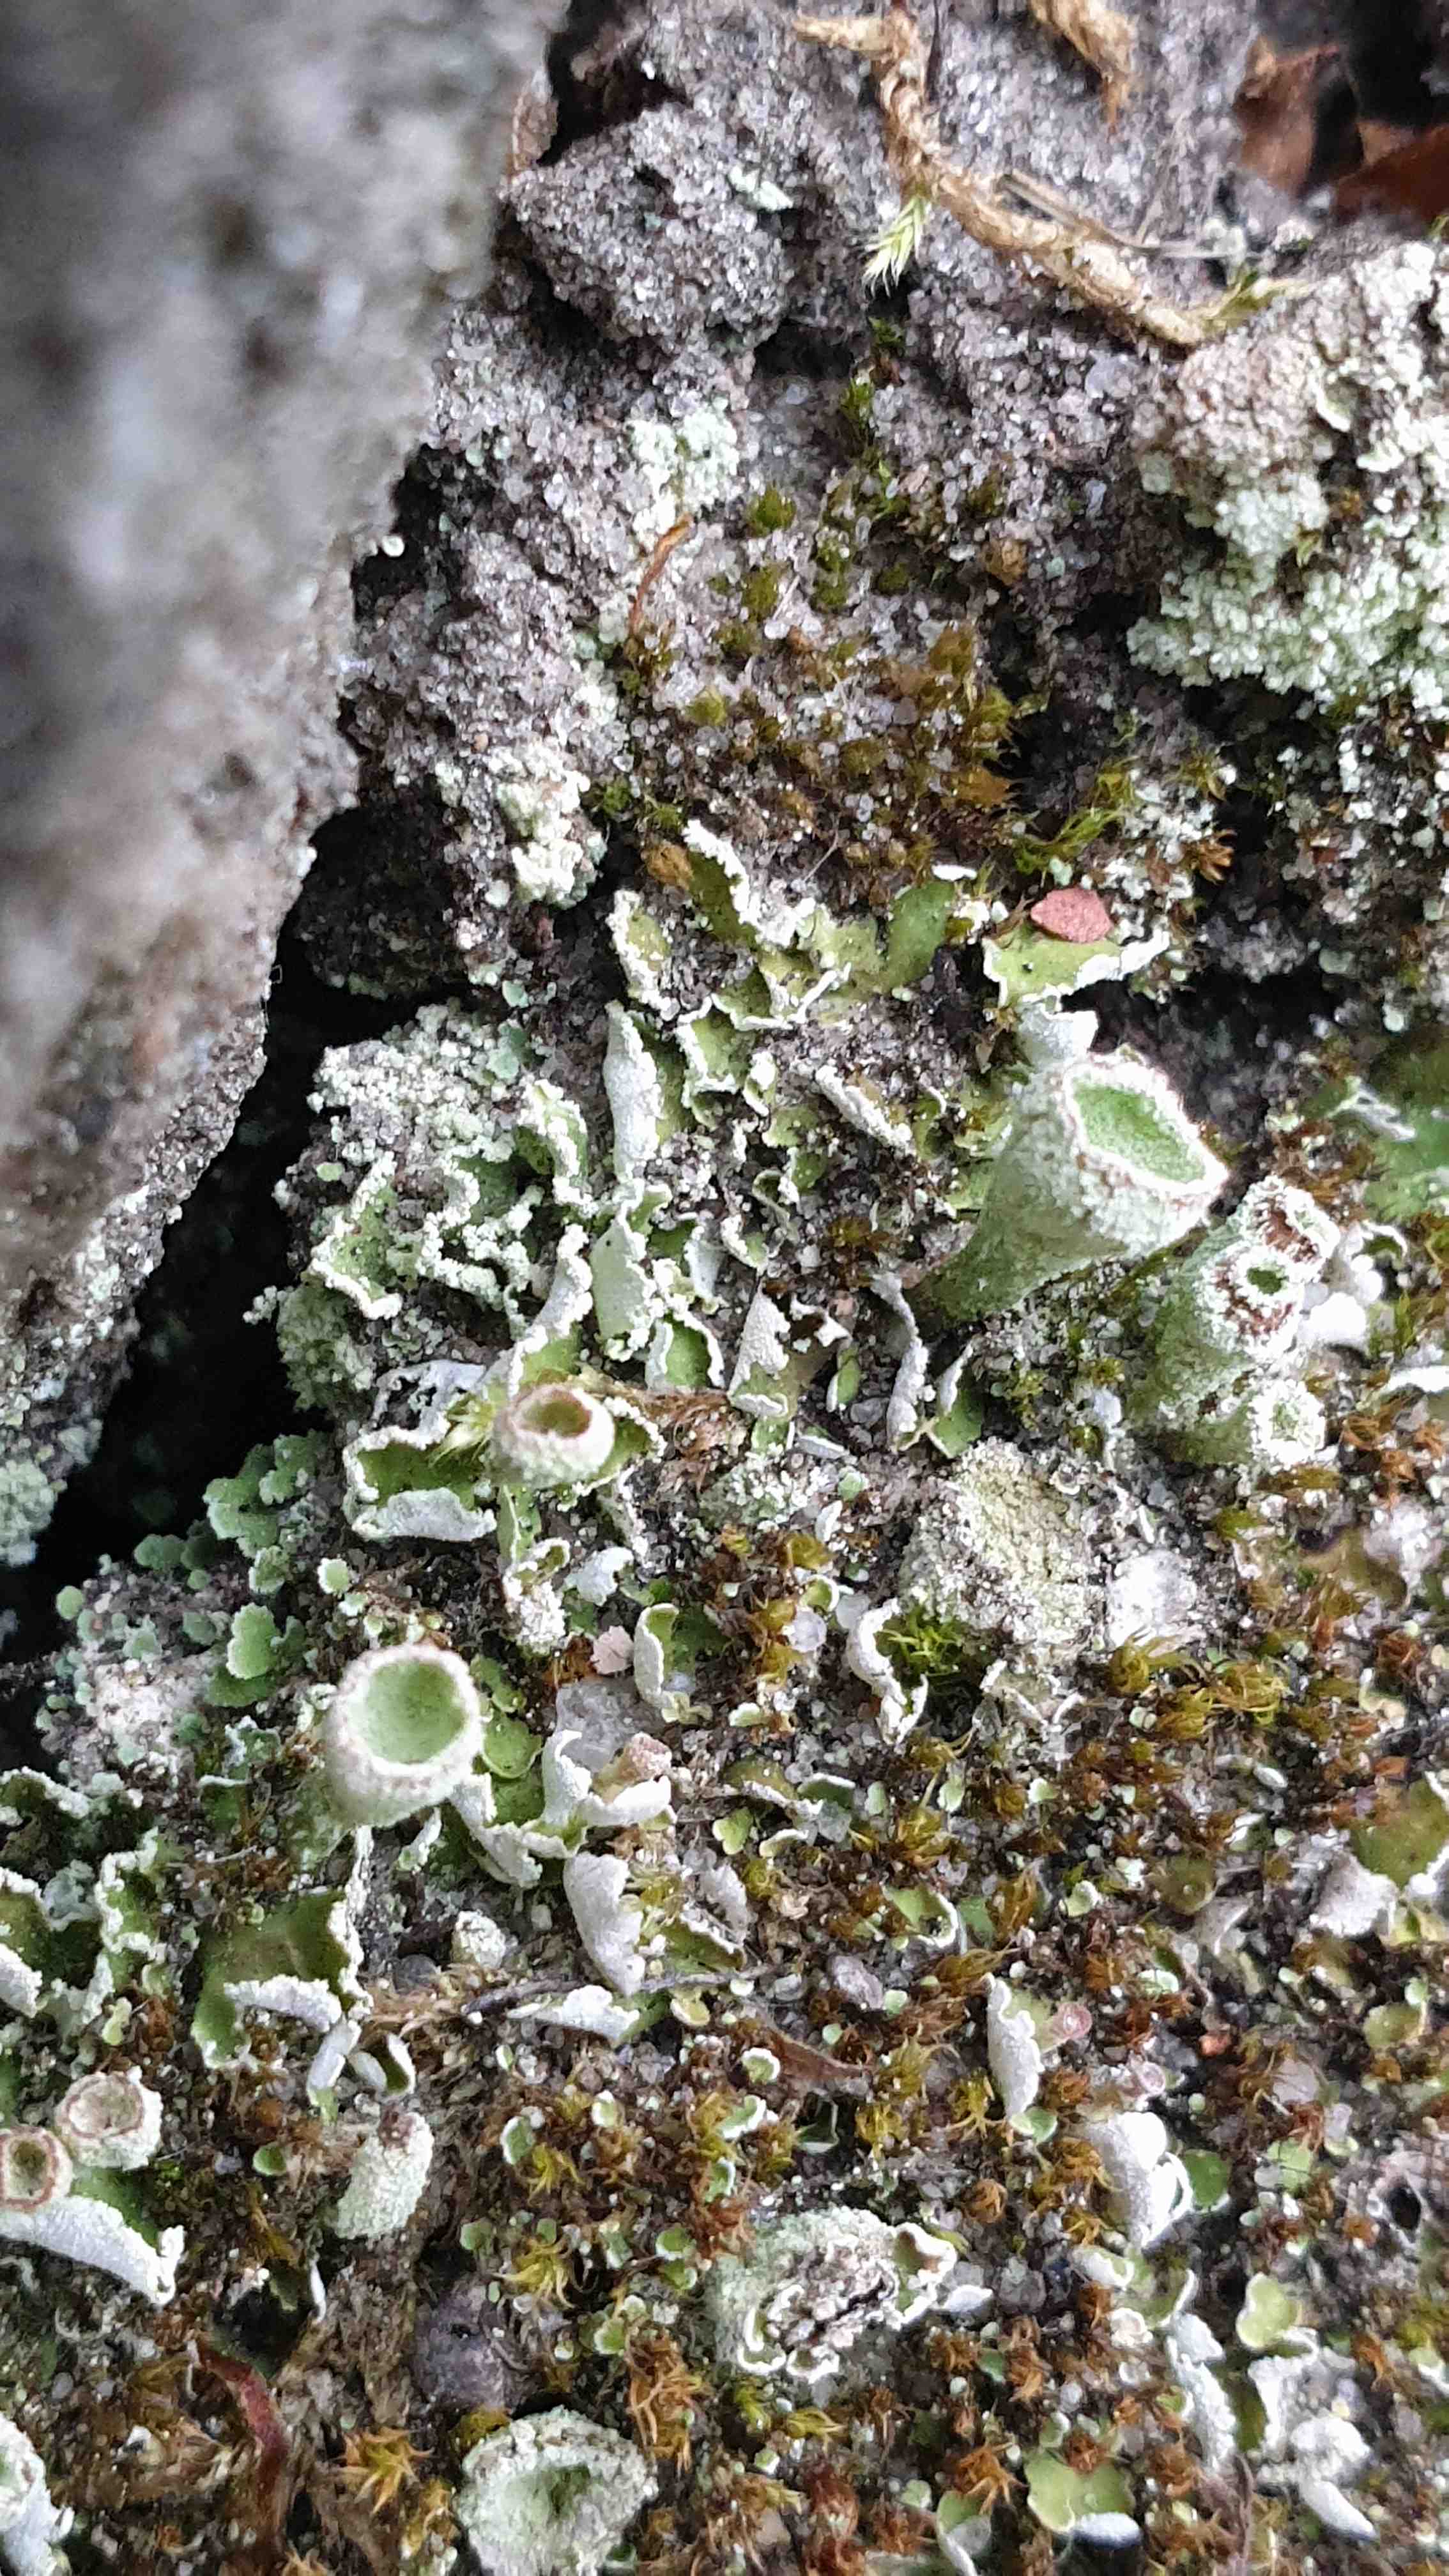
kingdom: Fungi
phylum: Ascomycota
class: Lecanoromycetes
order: Lecanorales
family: Cladoniaceae
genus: Cladonia
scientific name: Cladonia humilis
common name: lav bægerlav
